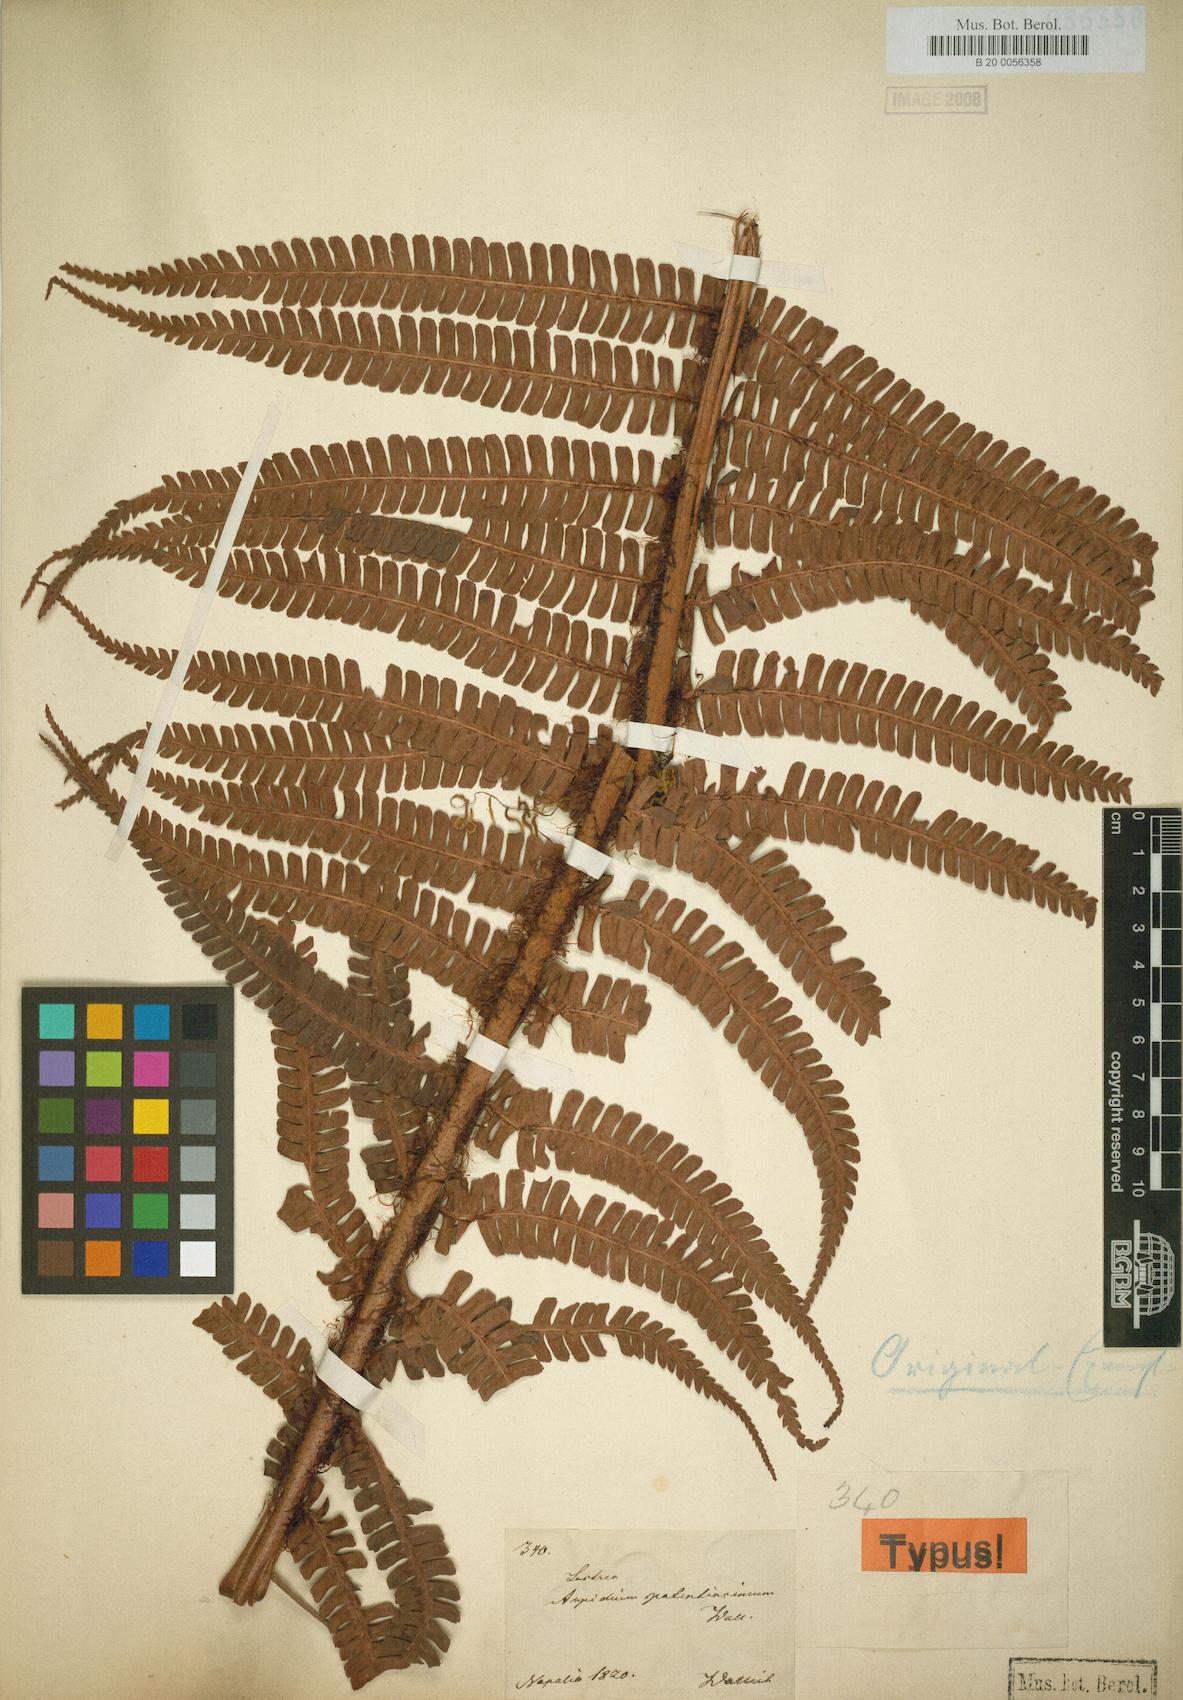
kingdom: Plantae
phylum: Tracheophyta
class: Polypodiopsida
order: Polypodiales
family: Dryopteridaceae
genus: Dryopteris
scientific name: Dryopteris wallichiana
